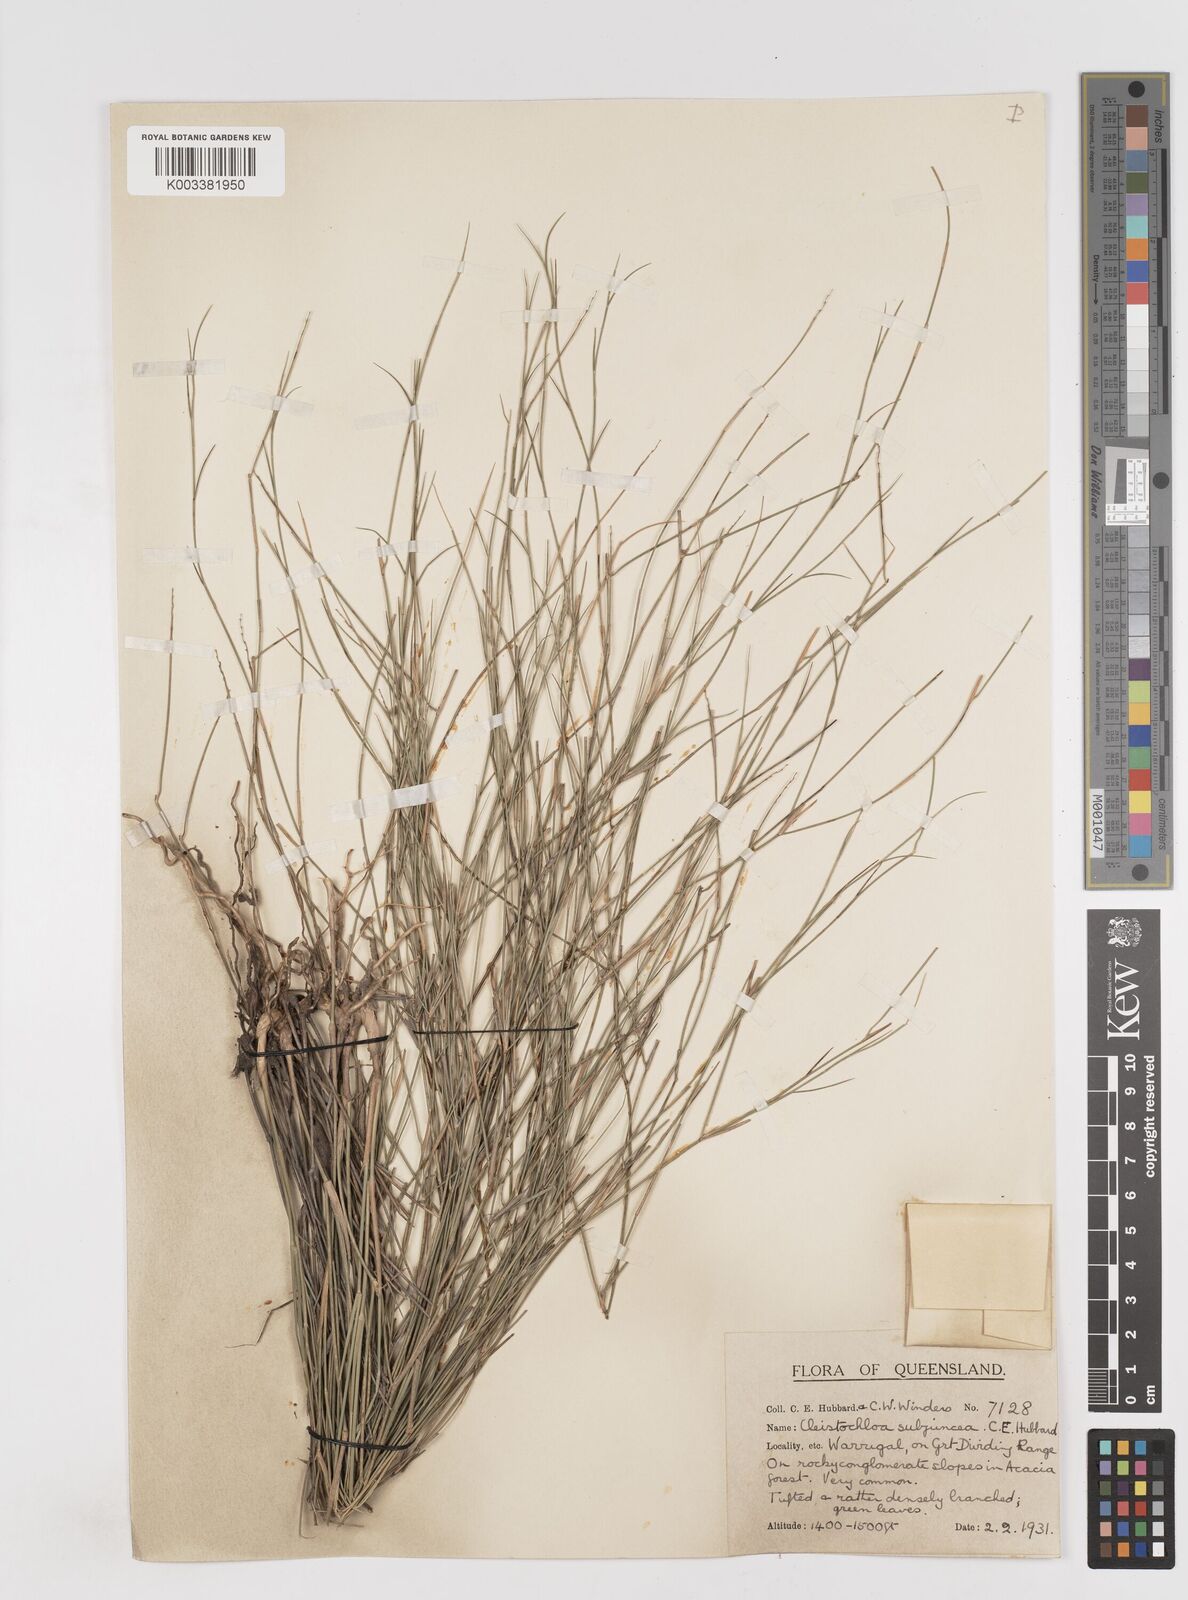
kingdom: Plantae
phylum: Tracheophyta
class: Liliopsida
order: Poales
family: Poaceae
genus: Cleistochloa
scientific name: Cleistochloa subjuncea
